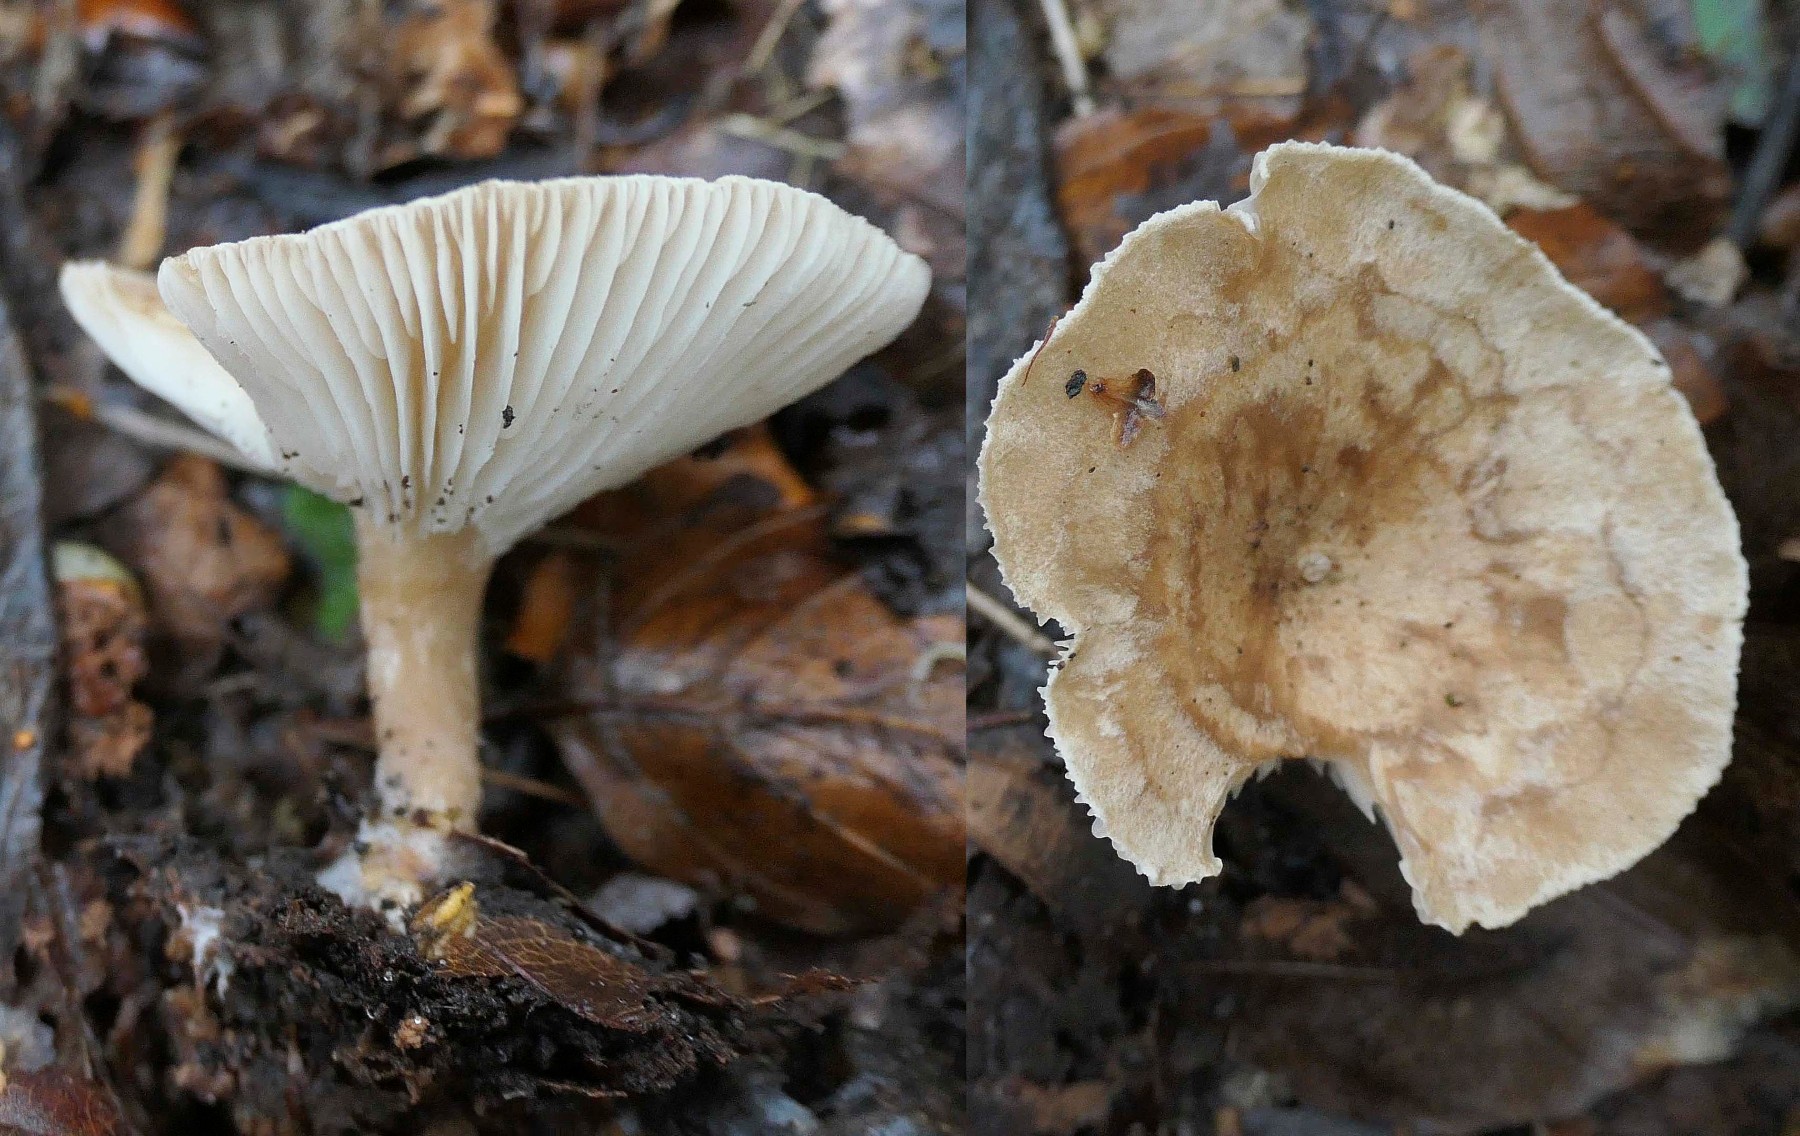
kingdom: Fungi
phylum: Basidiomycota
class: Agaricomycetes
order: Agaricales
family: Tricholomataceae
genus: Clitocybe
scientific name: Clitocybe costata
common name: brunstokket tragthat
